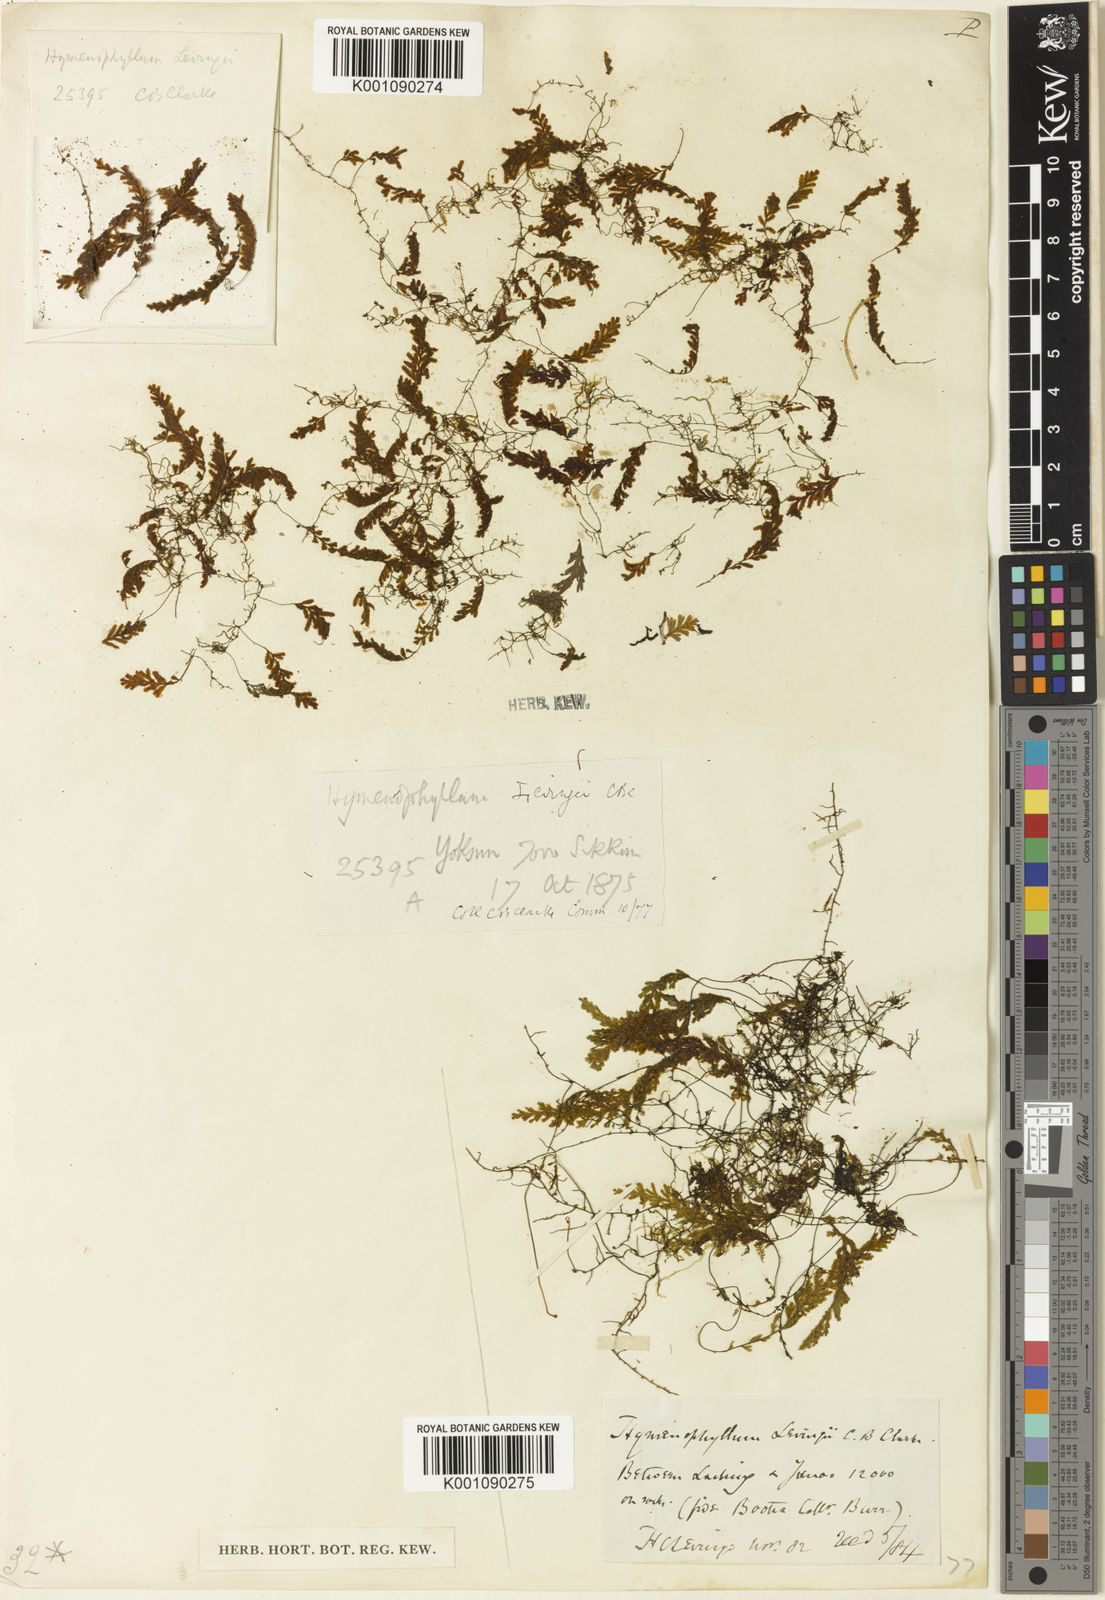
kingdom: Plantae
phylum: Tracheophyta
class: Polypodiopsida
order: Hymenophyllales
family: Hymenophyllaceae
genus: Hymenophyllum
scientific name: Hymenophyllum levingei
